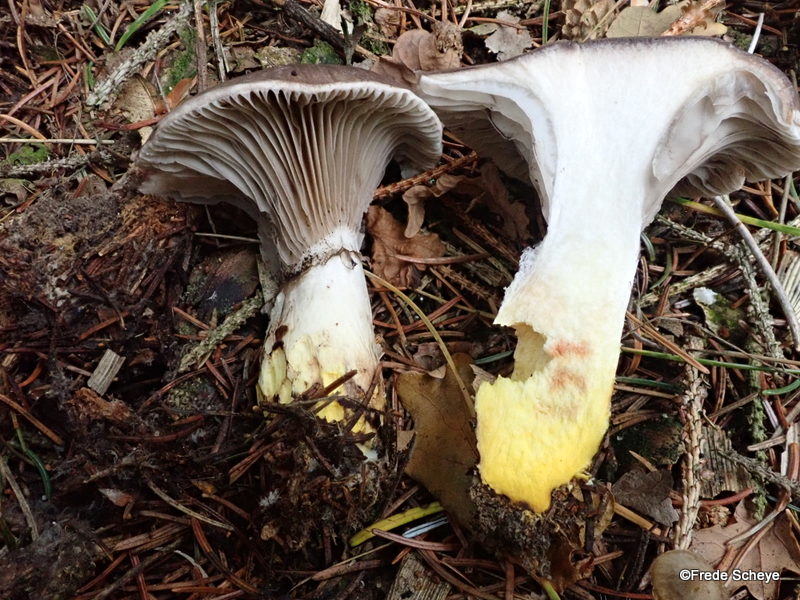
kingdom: Fungi
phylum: Basidiomycota
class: Agaricomycetes
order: Boletales
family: Gomphidiaceae
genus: Gomphidius
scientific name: Gomphidius glutinosus
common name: grå slimslør
